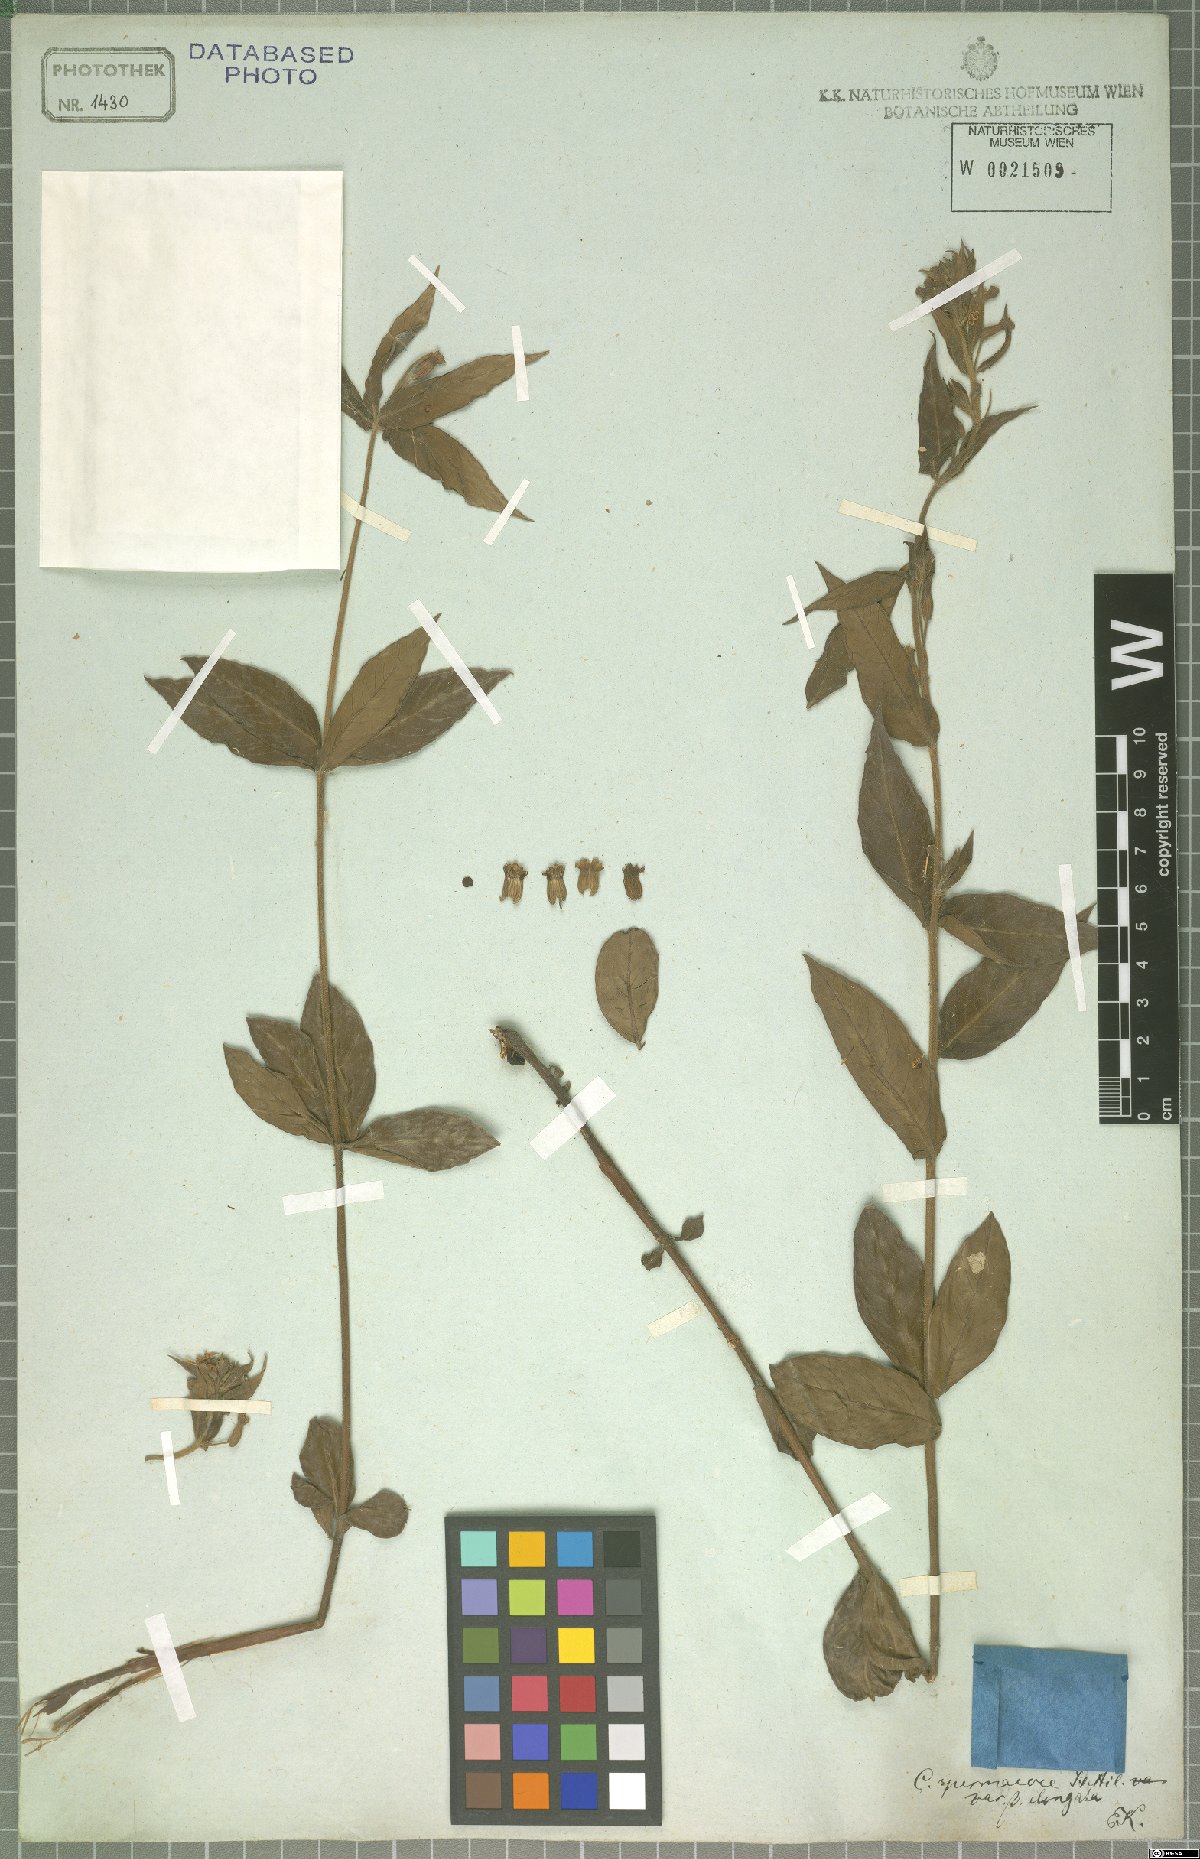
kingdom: Plantae
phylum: Tracheophyta
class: Magnoliopsida
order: Myrtales
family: Lythraceae
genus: Cuphea
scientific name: Cuphea spermacoce
